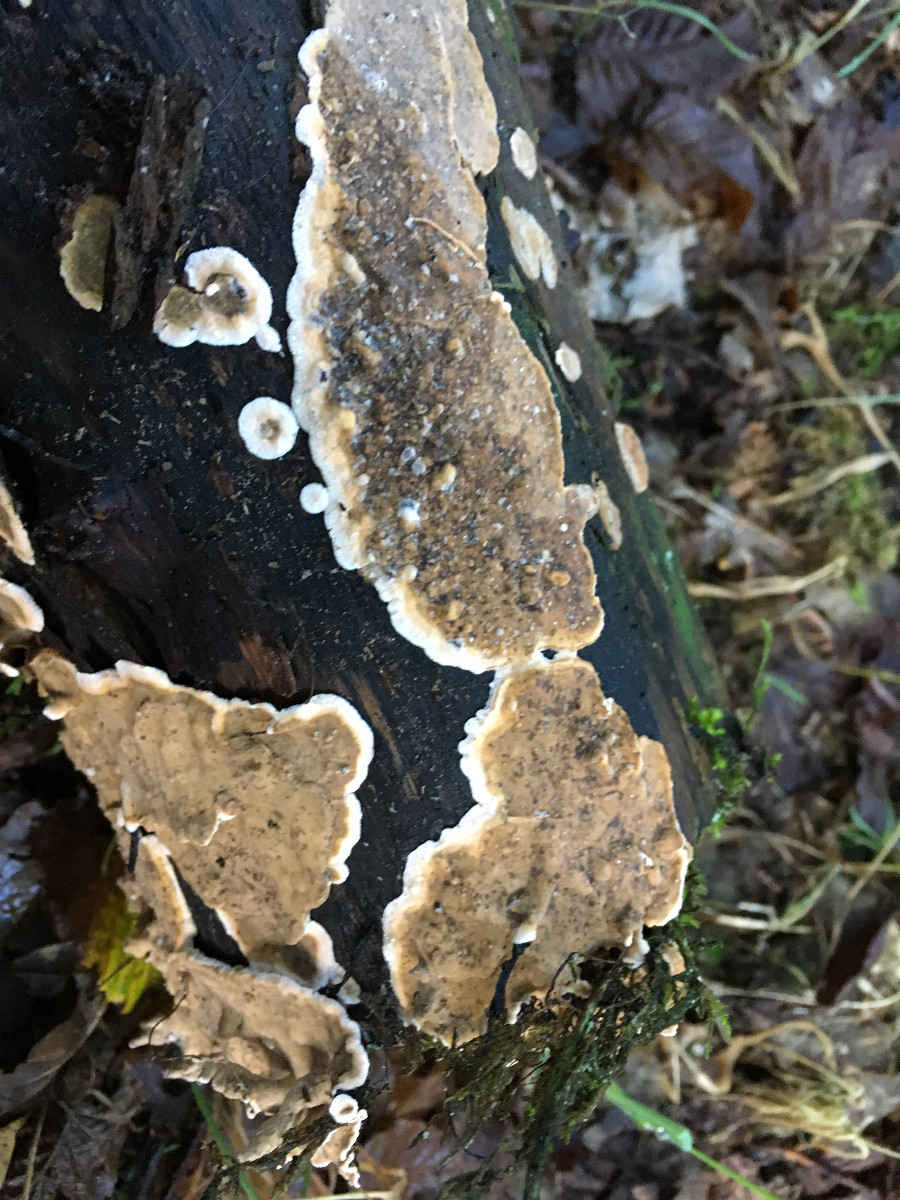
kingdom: Fungi
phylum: Basidiomycota
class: Agaricomycetes
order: Russulales
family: Stereaceae
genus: Stereum
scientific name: Stereum
